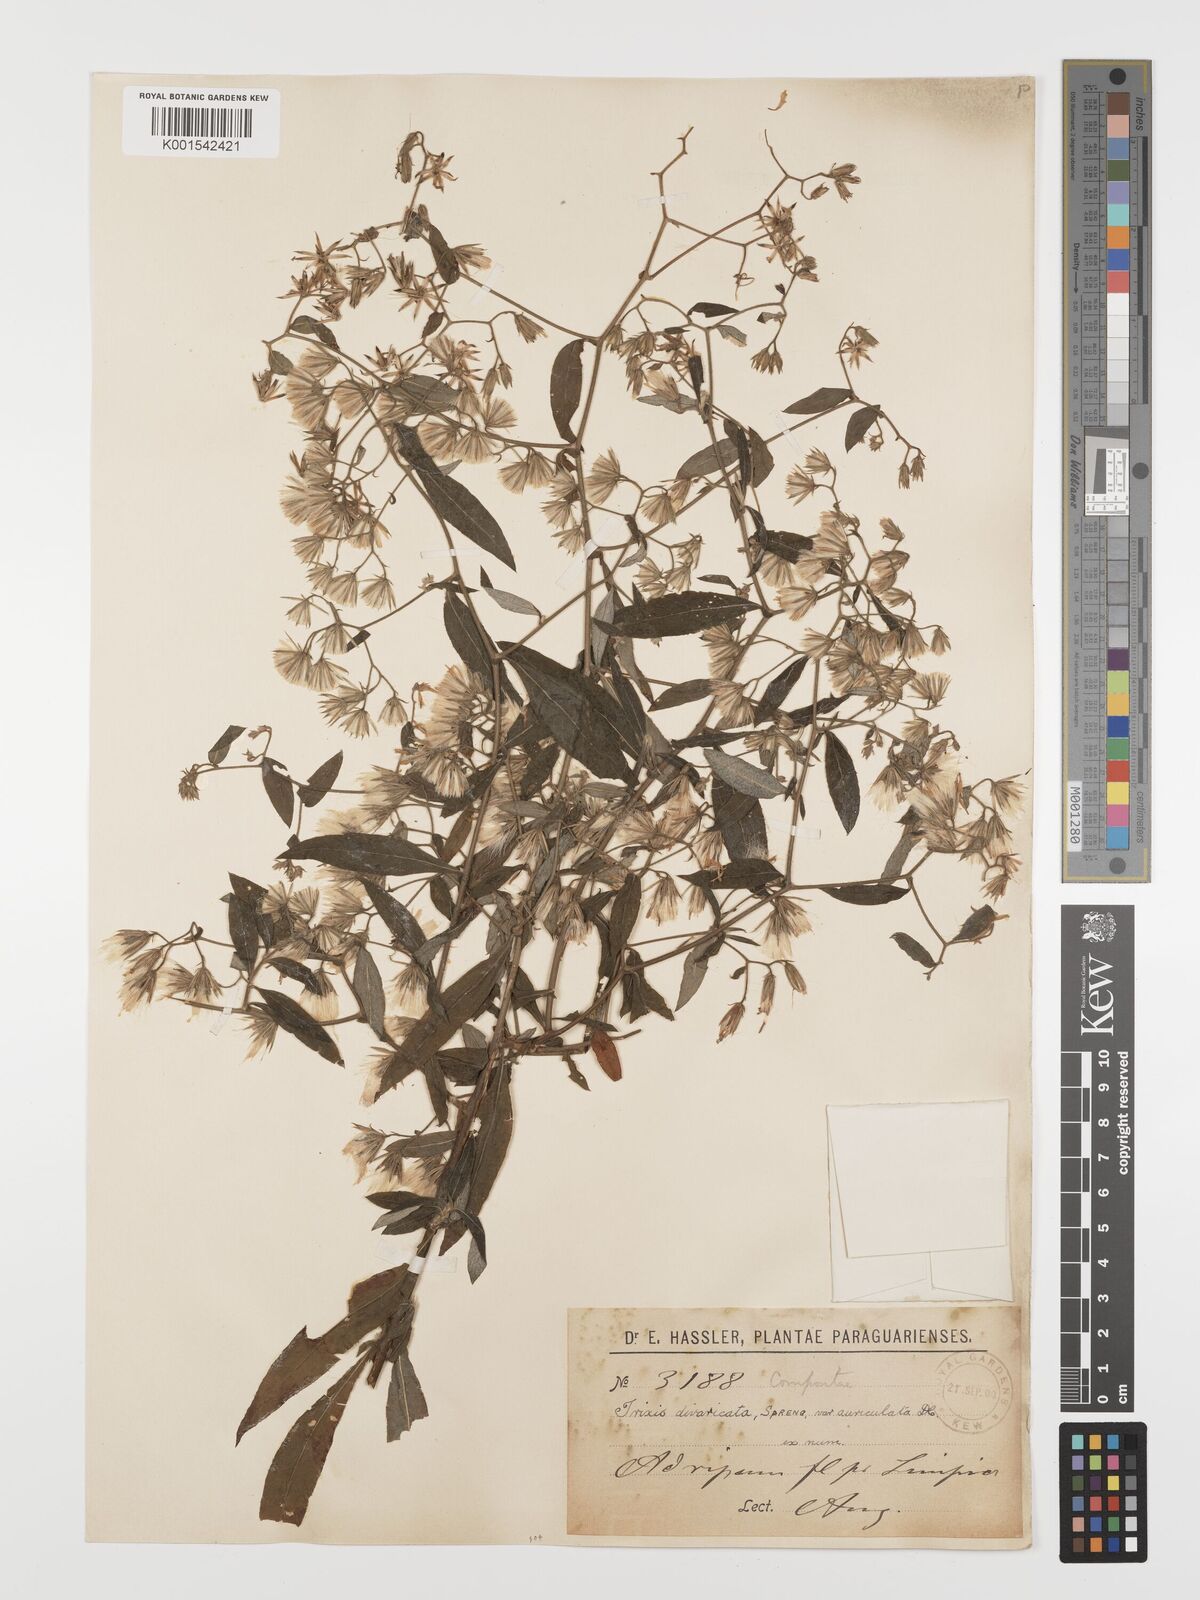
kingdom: Plantae
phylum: Tracheophyta
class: Magnoliopsida
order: Asterales
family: Asteraceae
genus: Trixis
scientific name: Trixis divaricata
